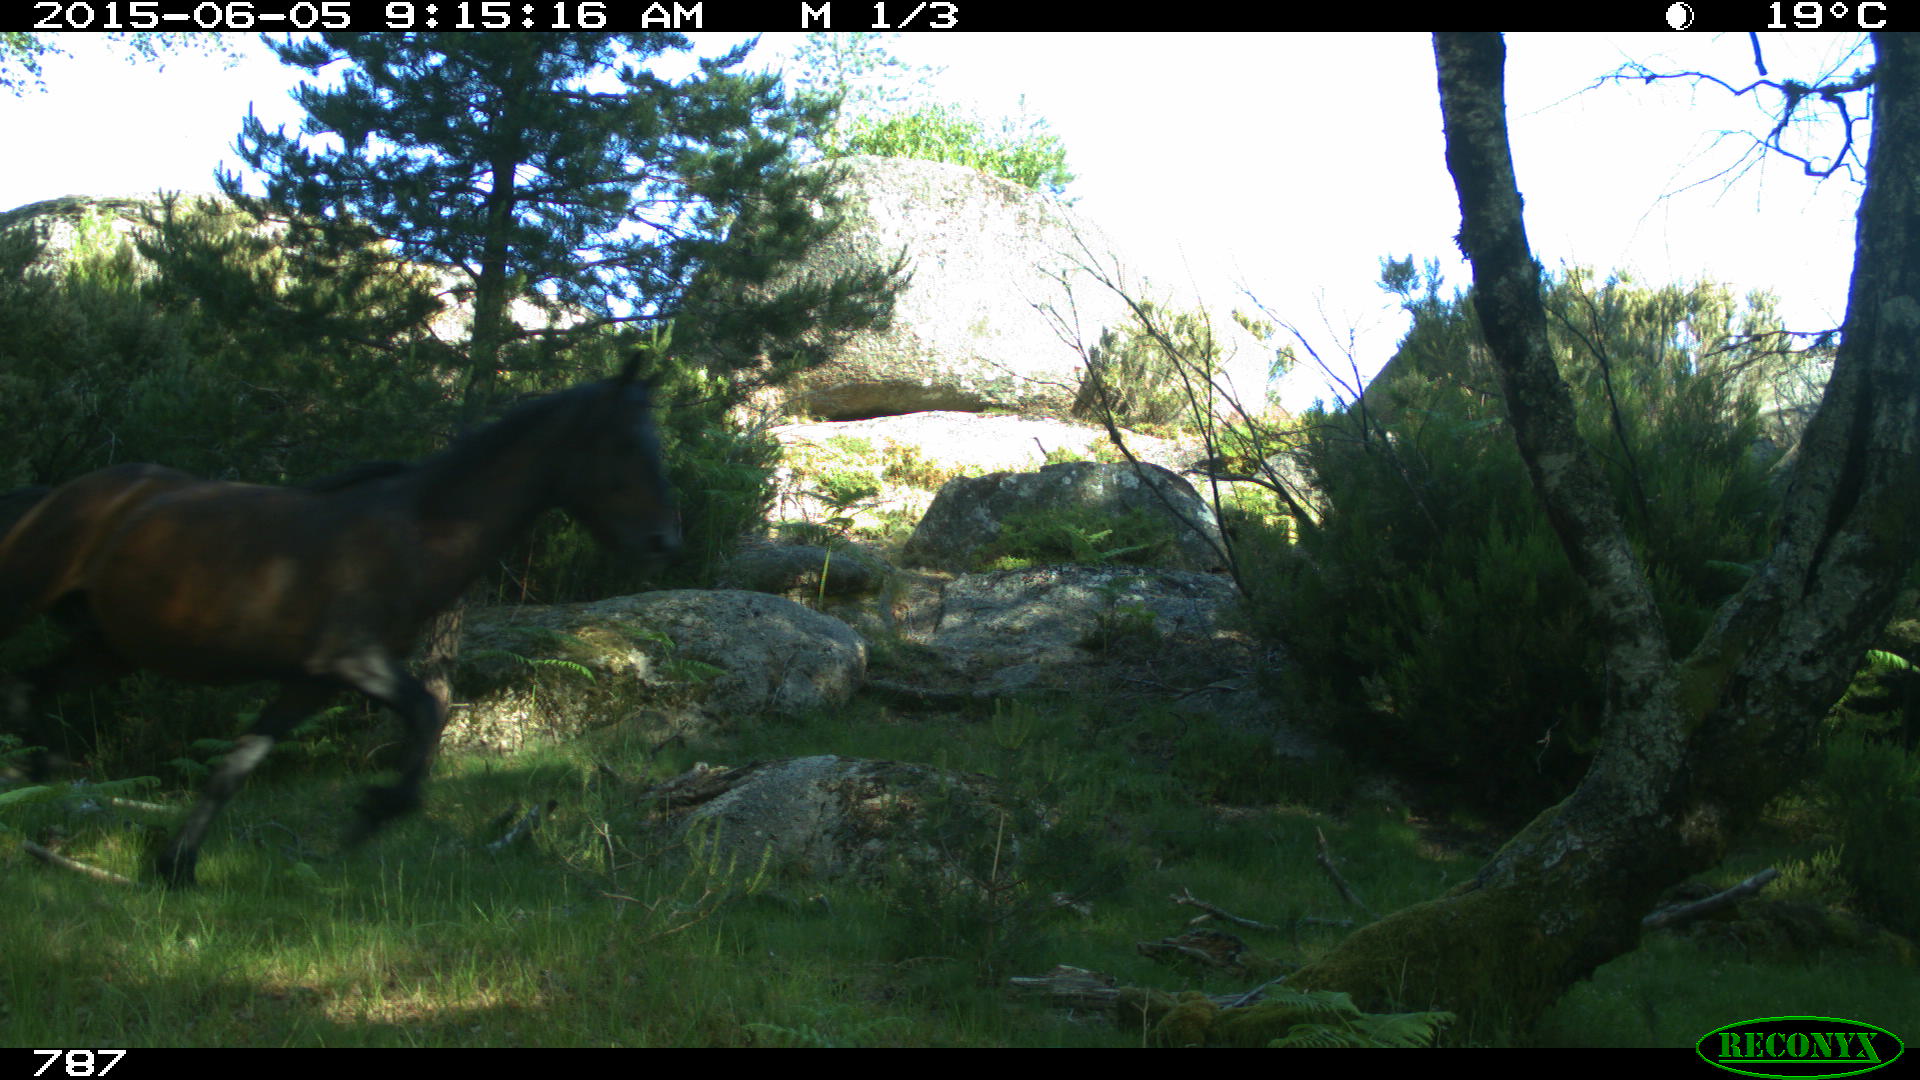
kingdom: Animalia
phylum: Chordata
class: Mammalia
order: Perissodactyla
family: Equidae
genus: Equus
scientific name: Equus caballus
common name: Horse
